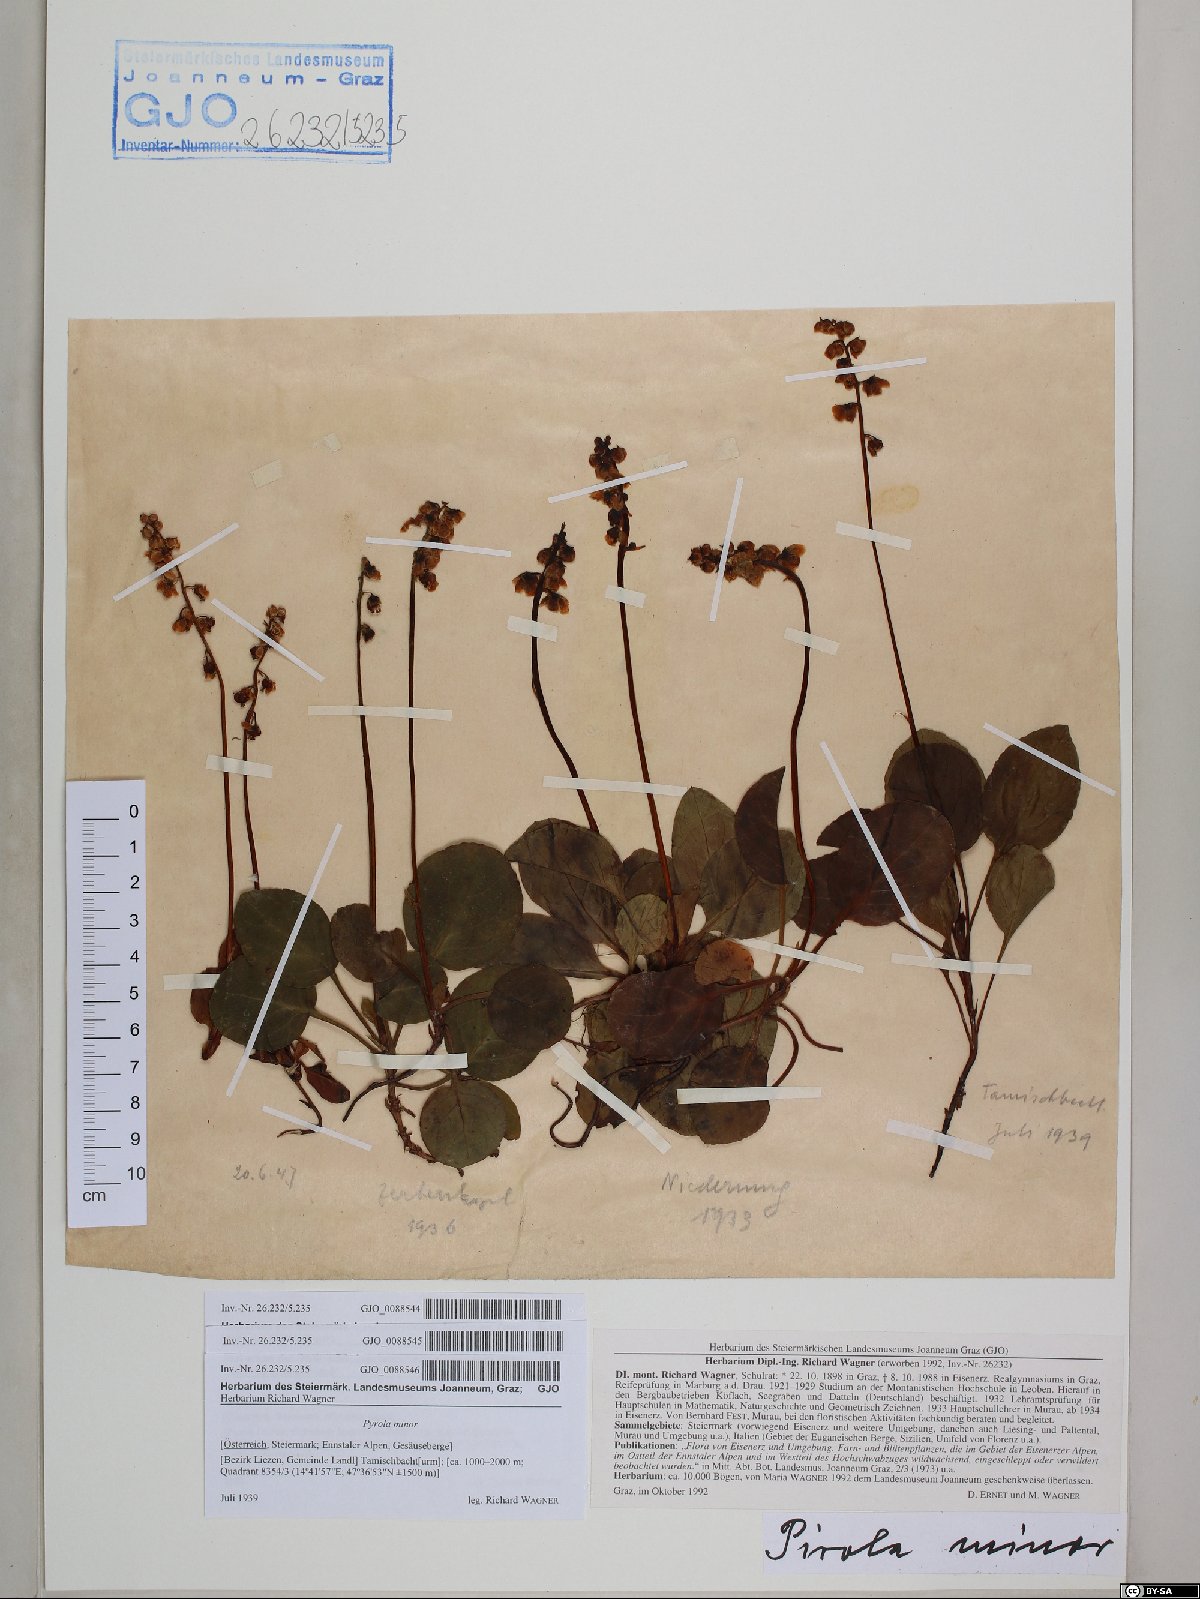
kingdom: Plantae
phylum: Tracheophyta
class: Magnoliopsida
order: Ericales
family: Ericaceae
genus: Pyrola
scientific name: Pyrola minor
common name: Common wintergreen
